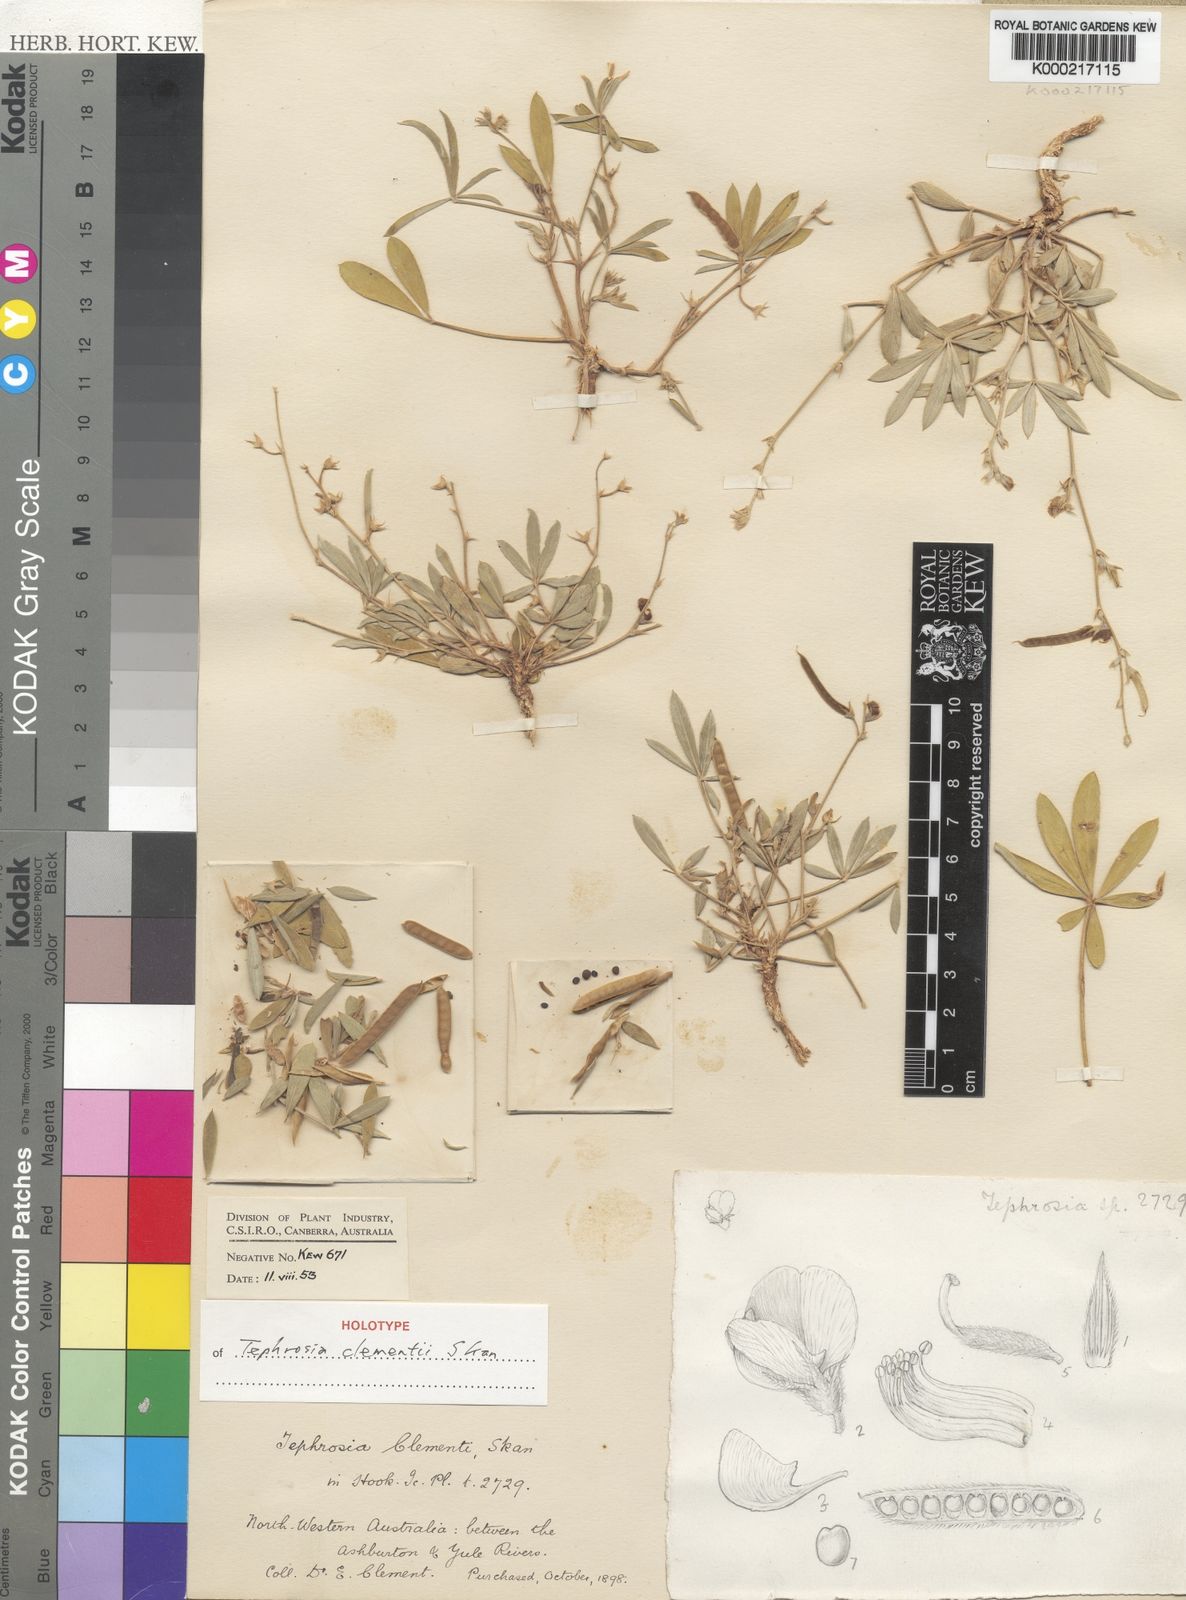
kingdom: Plantae
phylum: Tracheophyta
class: Magnoliopsida
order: Fabales
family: Fabaceae
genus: Tephrosia
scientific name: Tephrosia clementii
